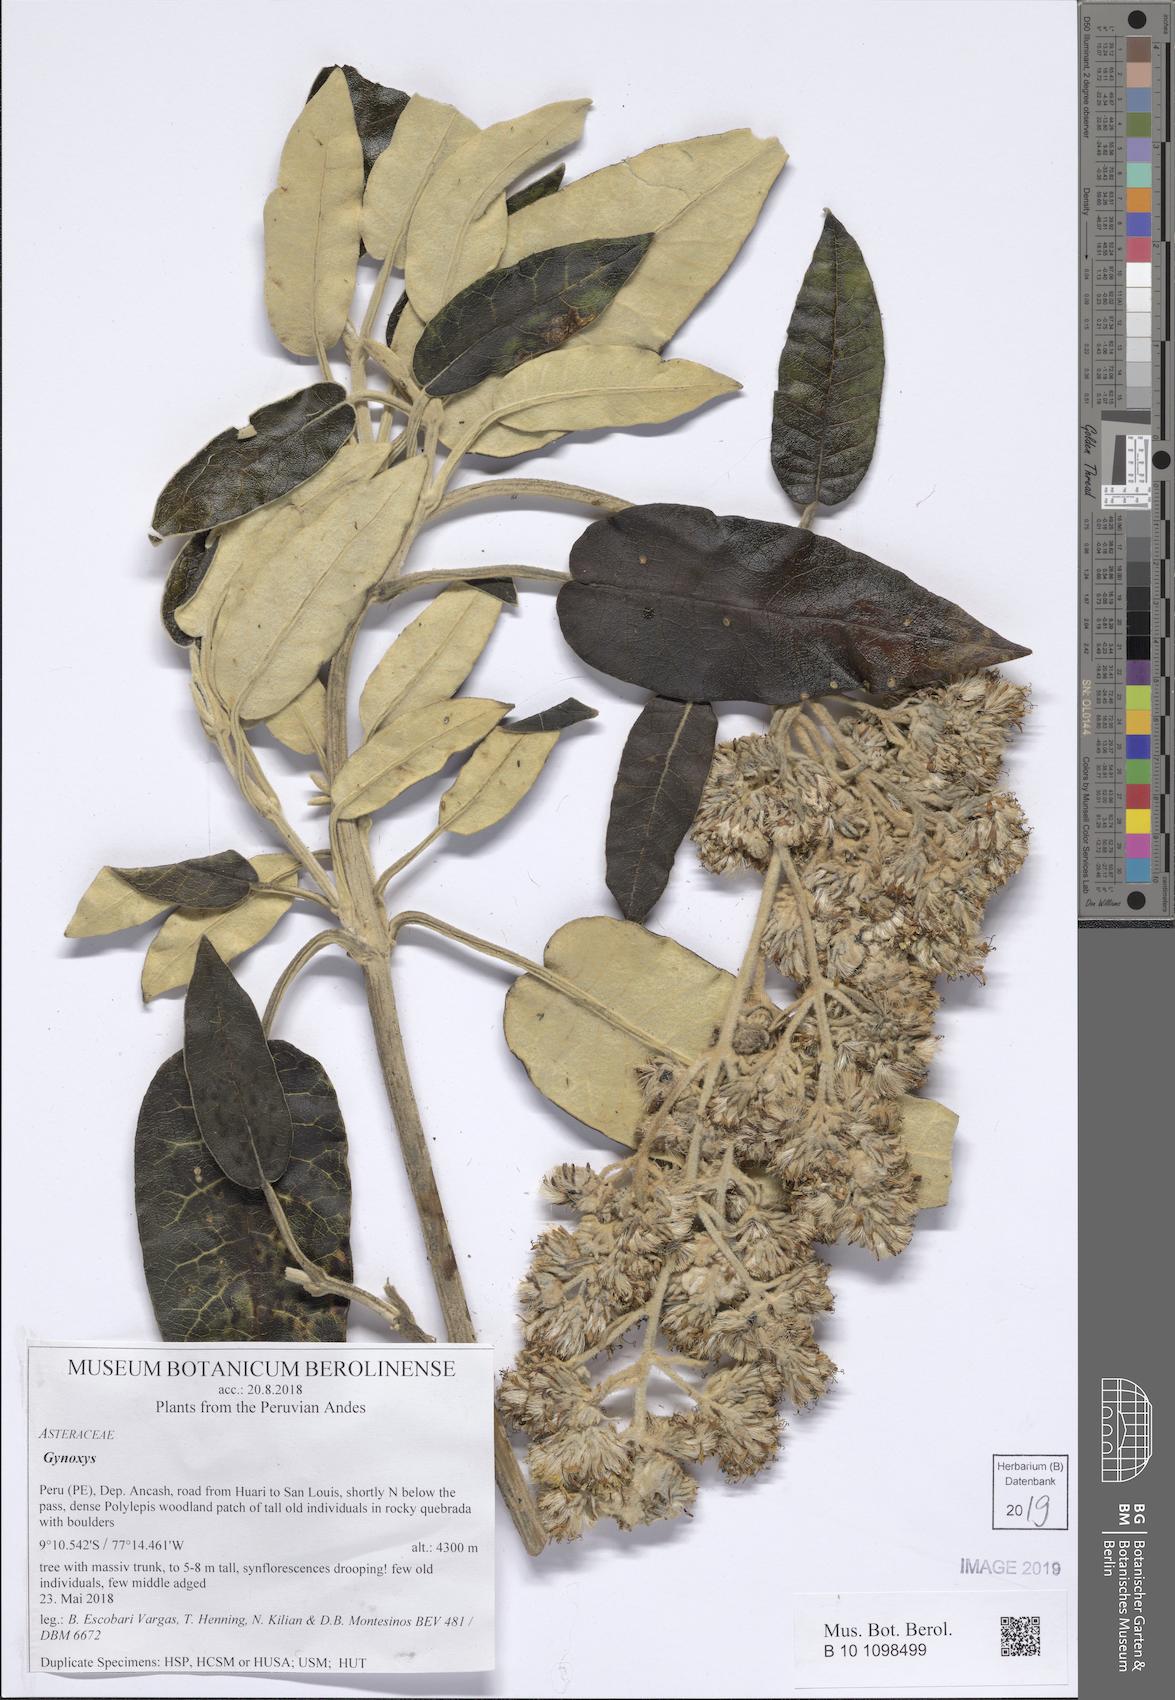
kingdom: Plantae
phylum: Tracheophyta
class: Magnoliopsida
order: Asterales
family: Asteraceae
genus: Gynoxys
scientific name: Gynoxys
